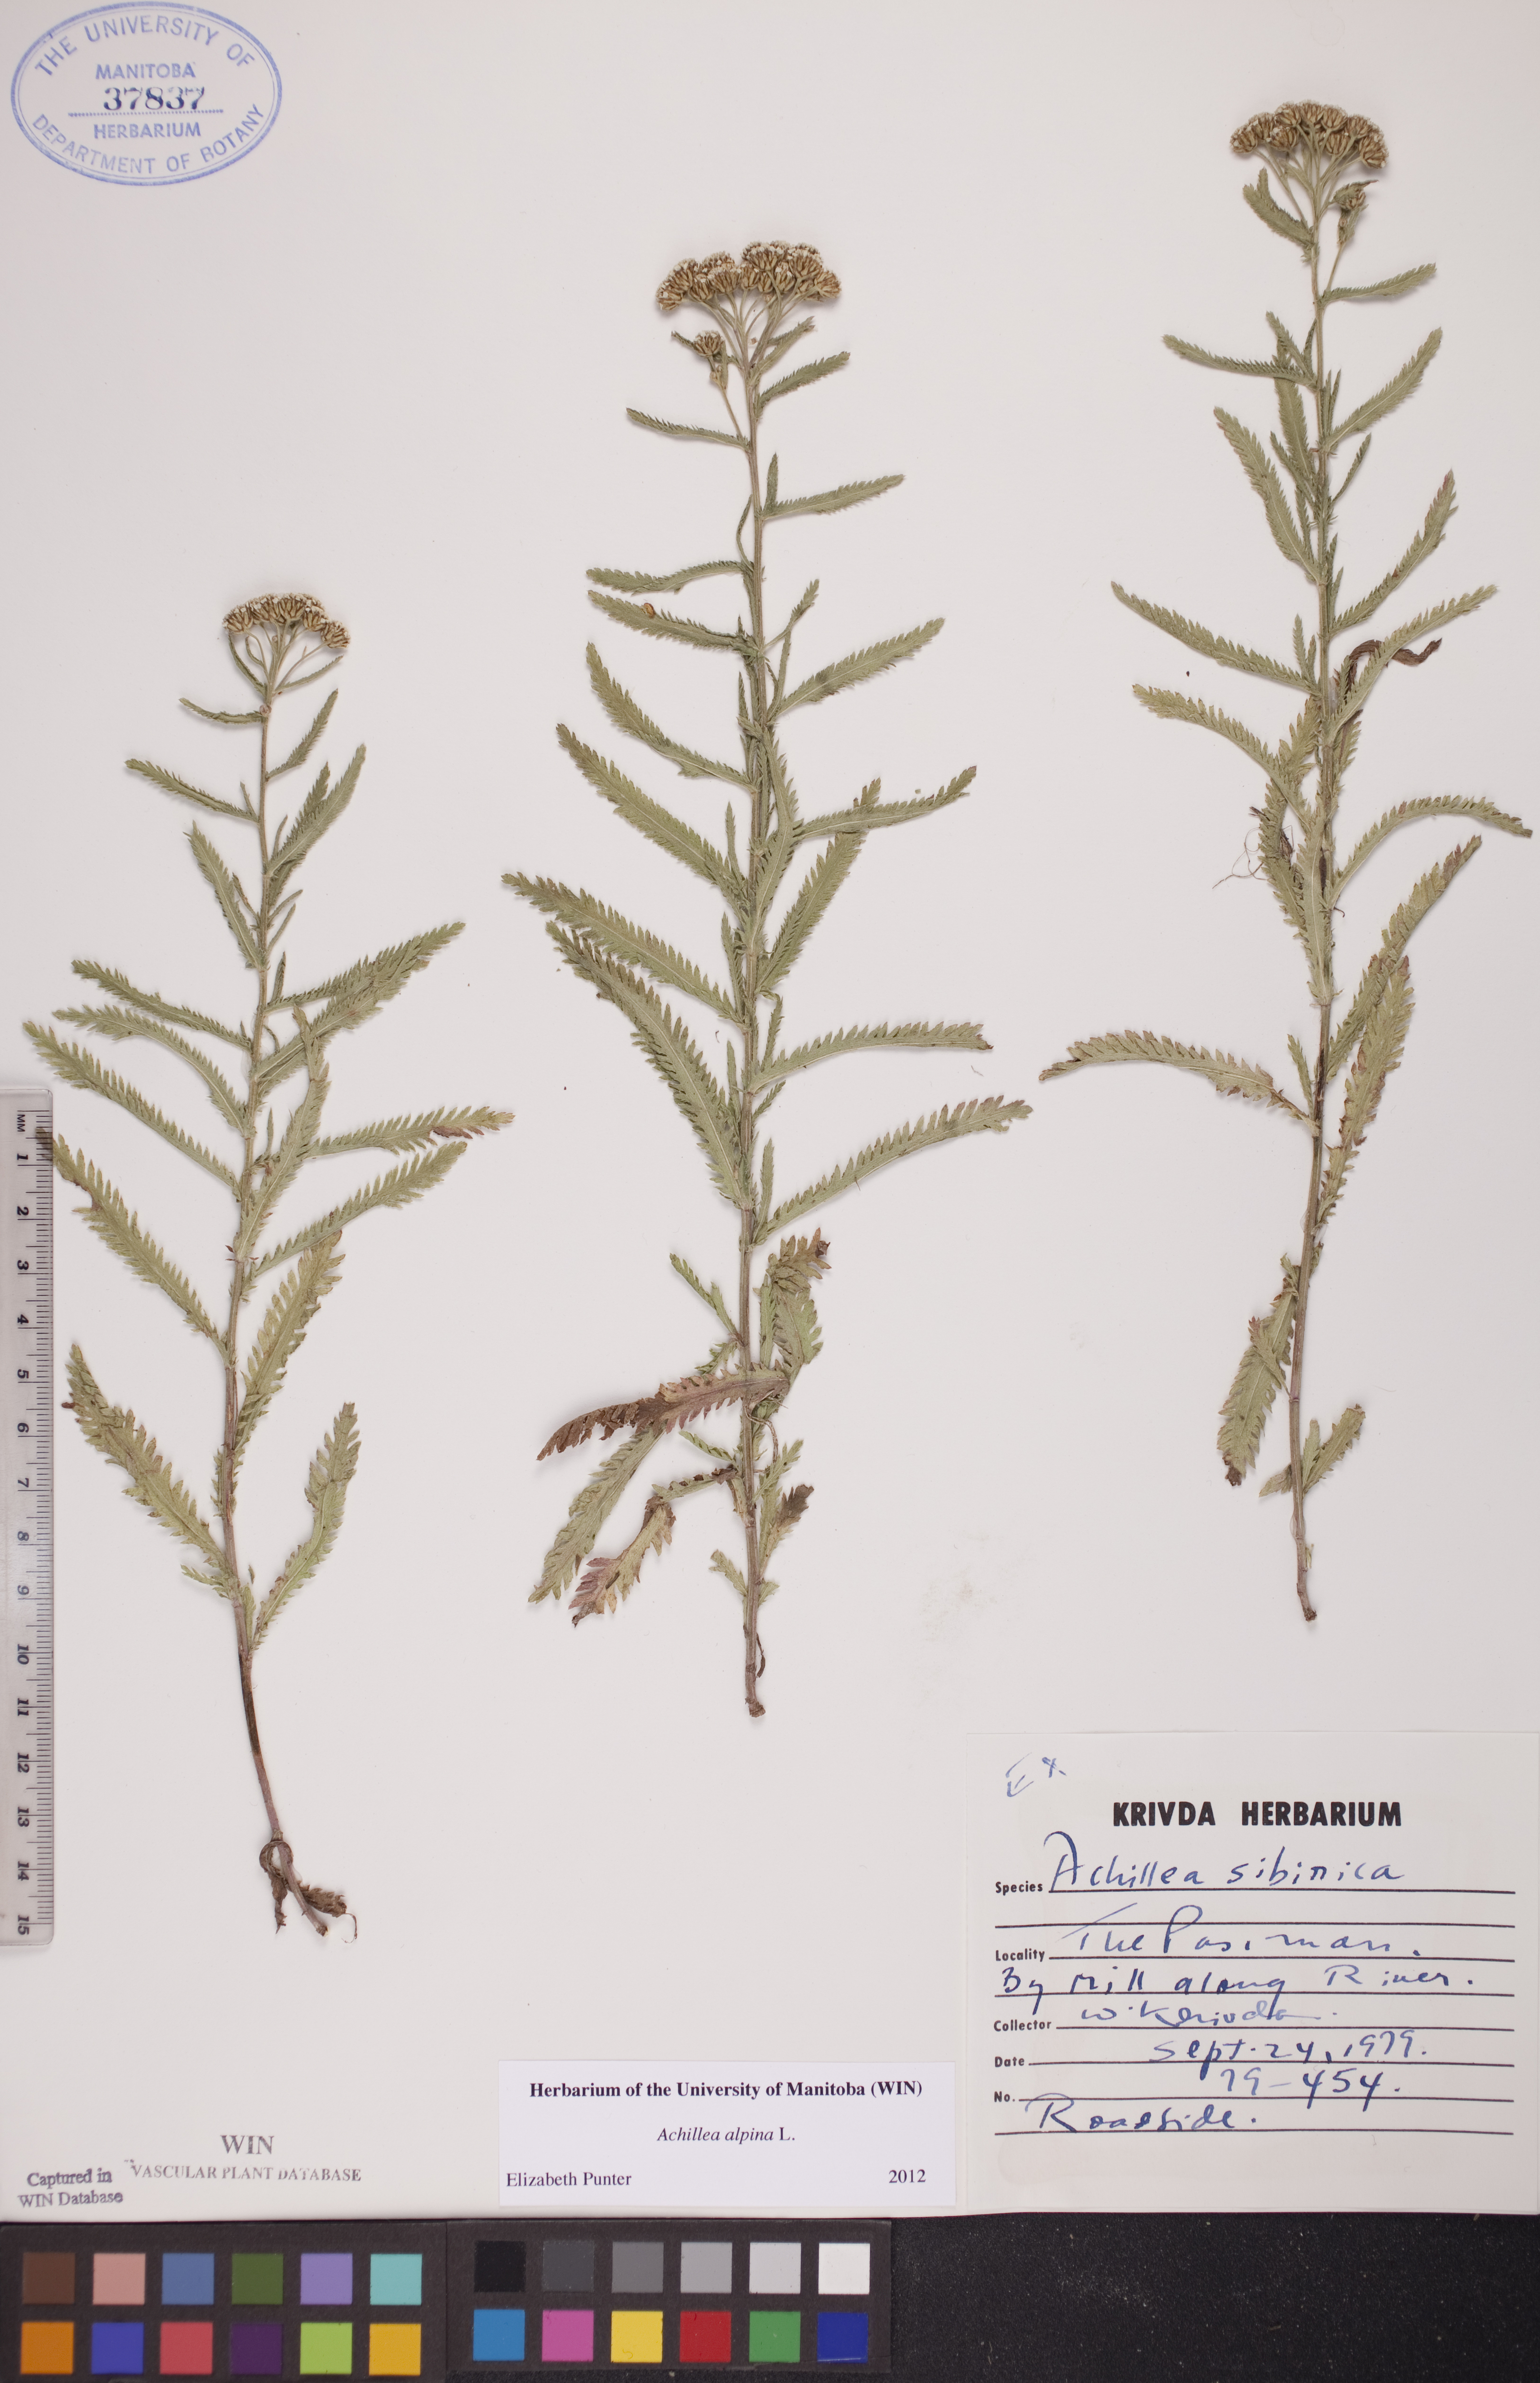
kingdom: Plantae
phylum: Tracheophyta
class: Magnoliopsida
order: Asterales
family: Asteraceae
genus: Achillea
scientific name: Achillea alpina
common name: Siberian yarrow
